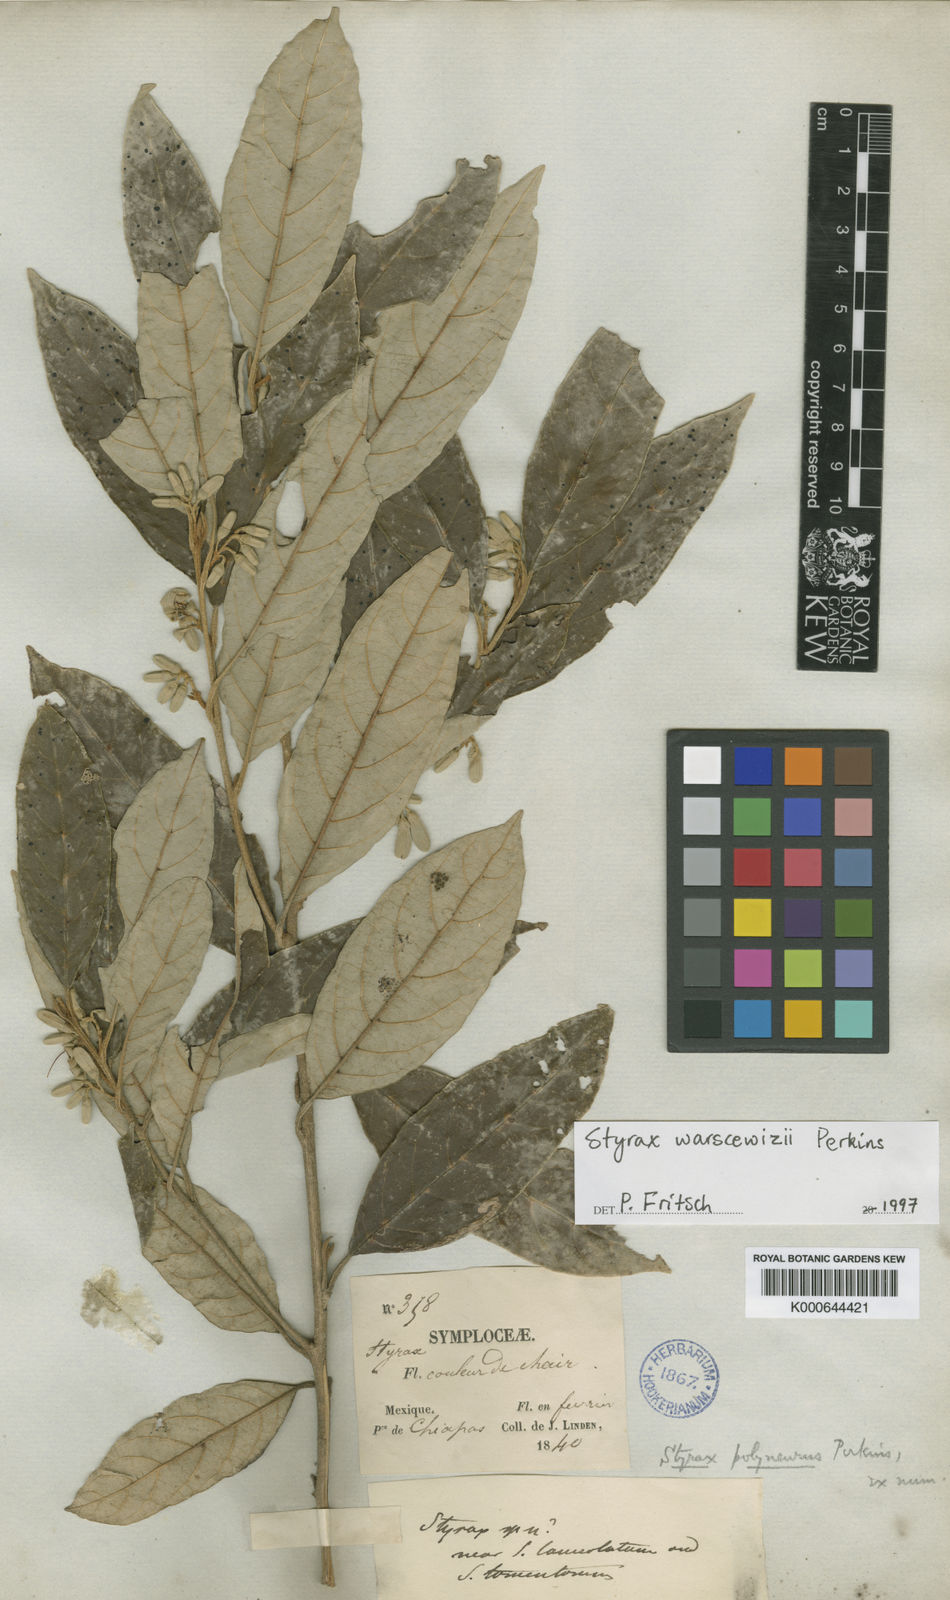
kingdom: Plantae
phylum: Tracheophyta
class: Magnoliopsida
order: Ericales
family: Styracaceae
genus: Styrax
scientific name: Styrax warscewiczii
